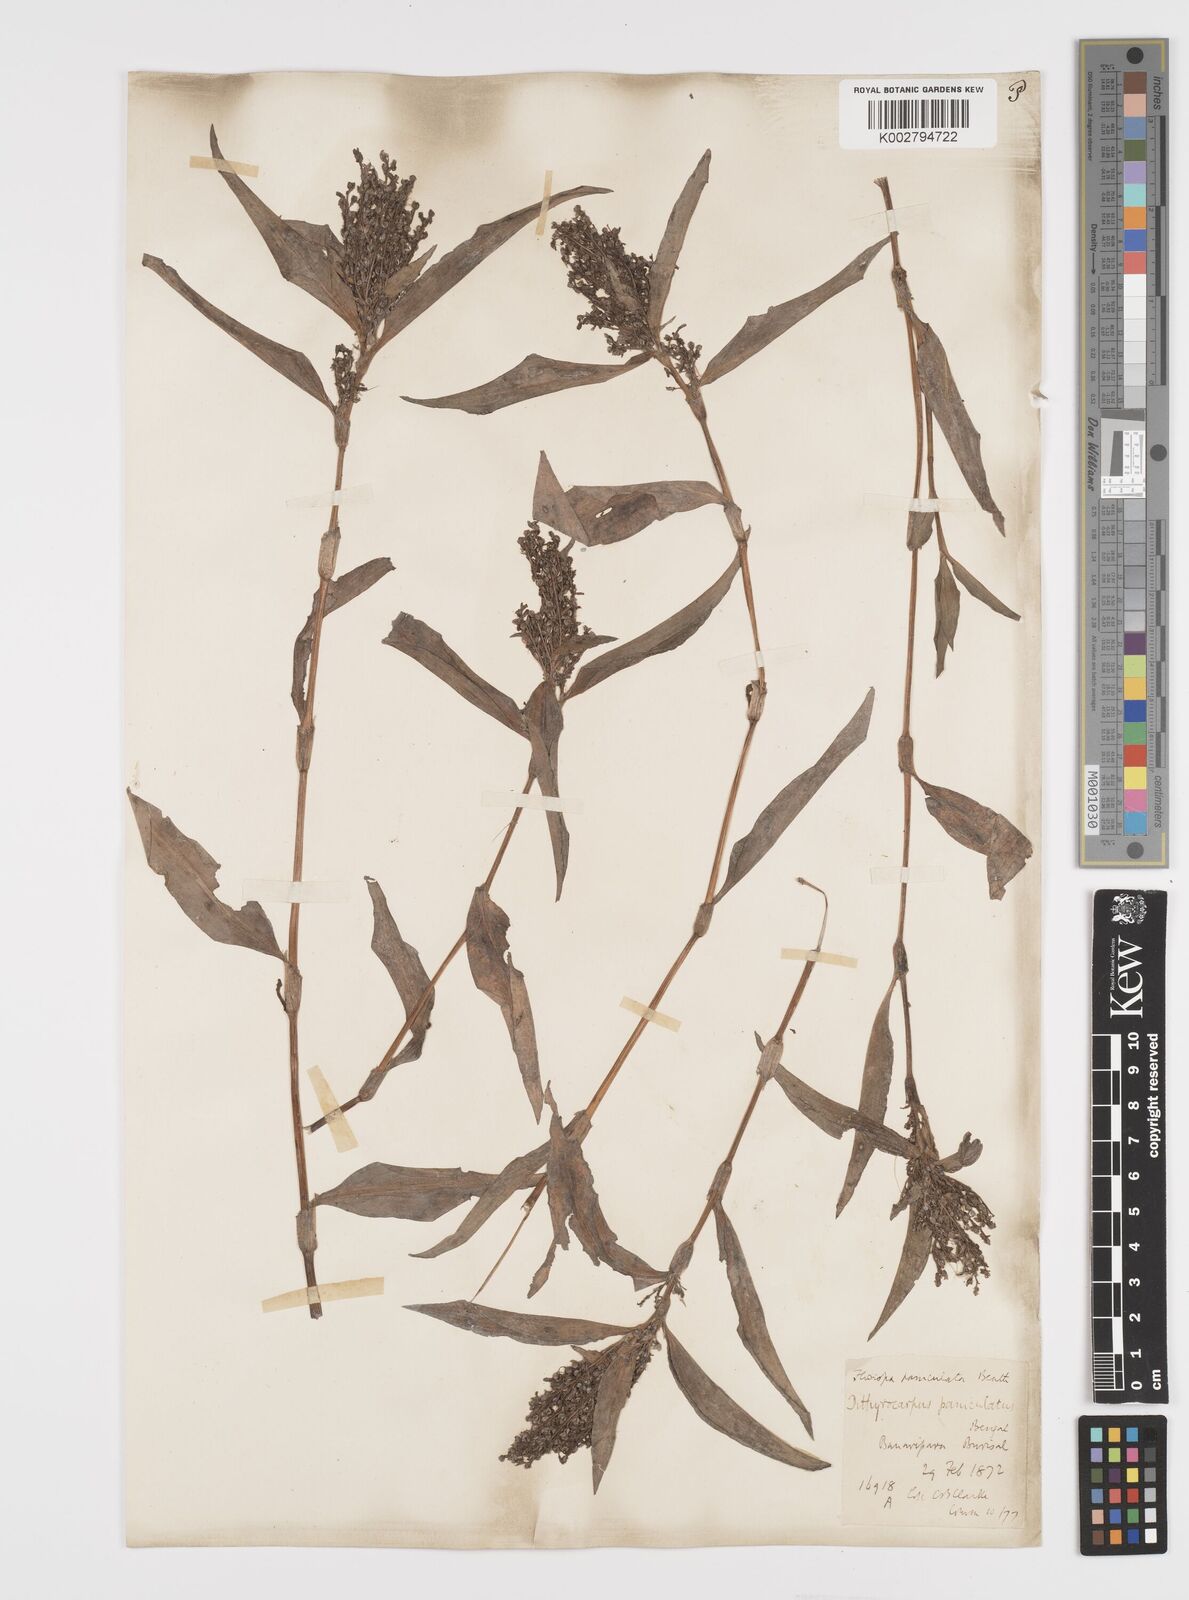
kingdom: Plantae
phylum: Tracheophyta
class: Liliopsida
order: Commelinales
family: Commelinaceae
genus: Floscopa
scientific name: Floscopa scandens
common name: Climbing flower cup
